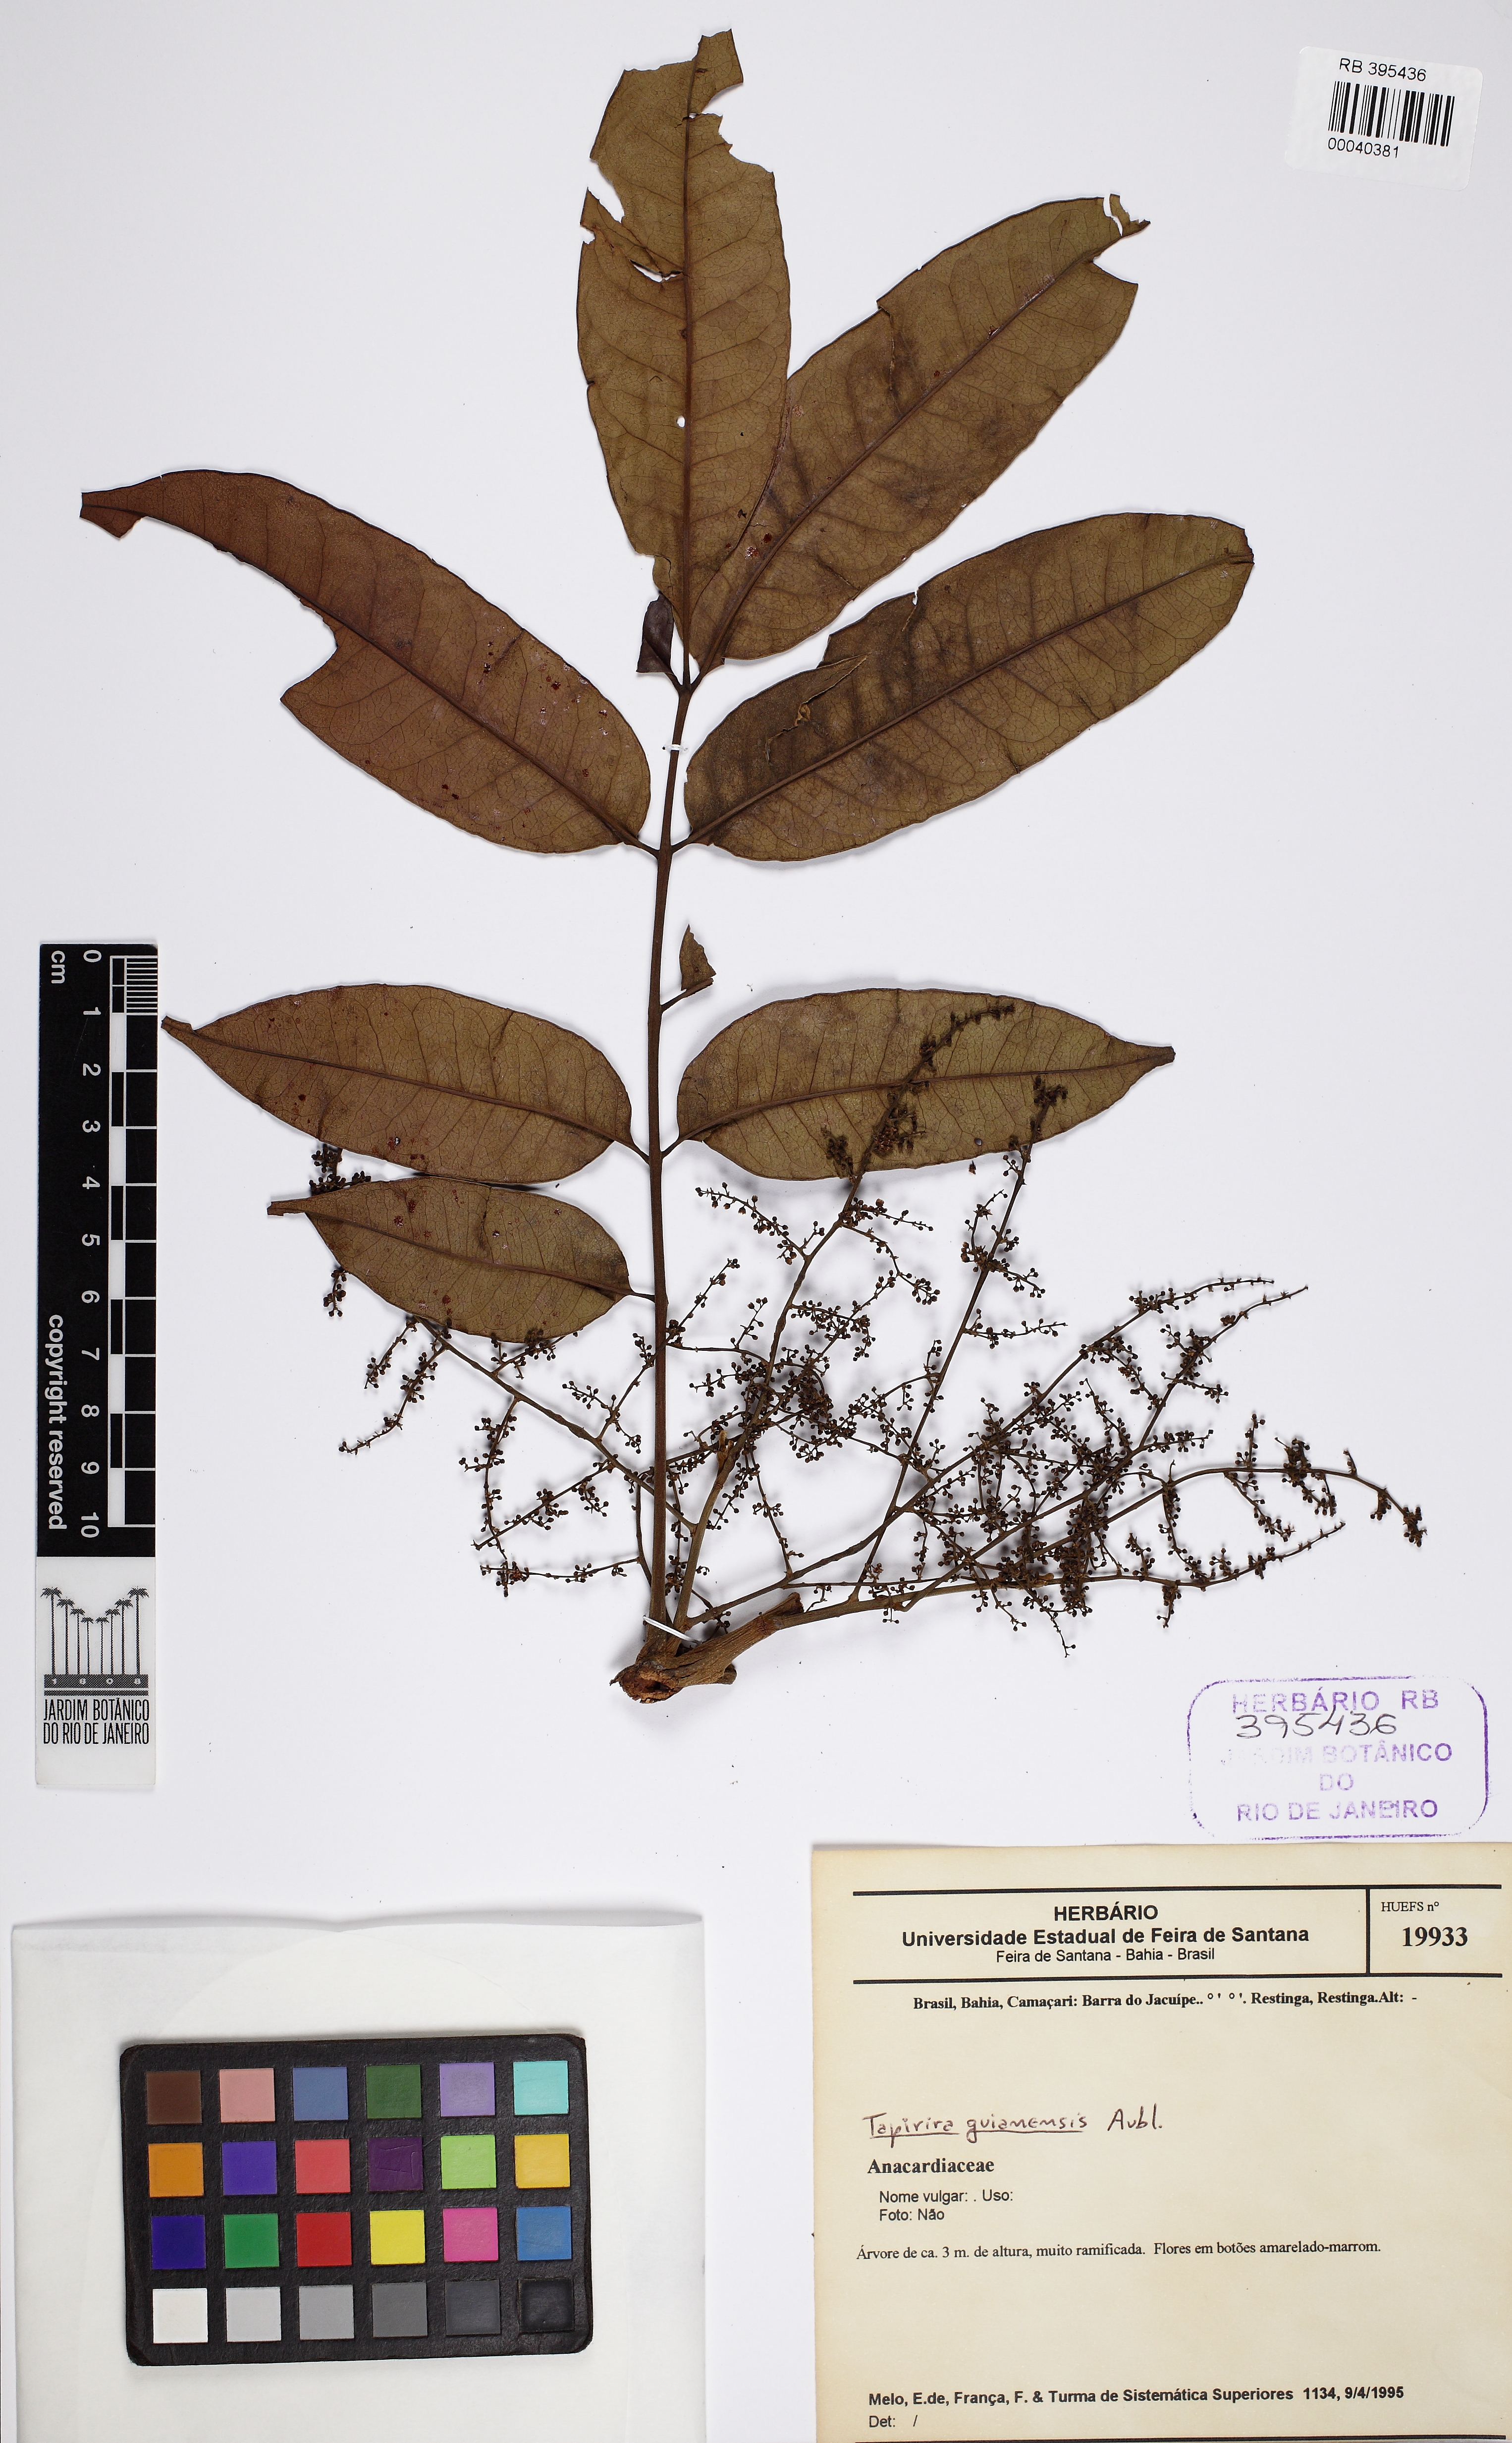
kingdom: Plantae
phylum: Tracheophyta
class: Magnoliopsida
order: Sapindales
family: Anacardiaceae
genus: Tapirira
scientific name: Tapirira guianensis
